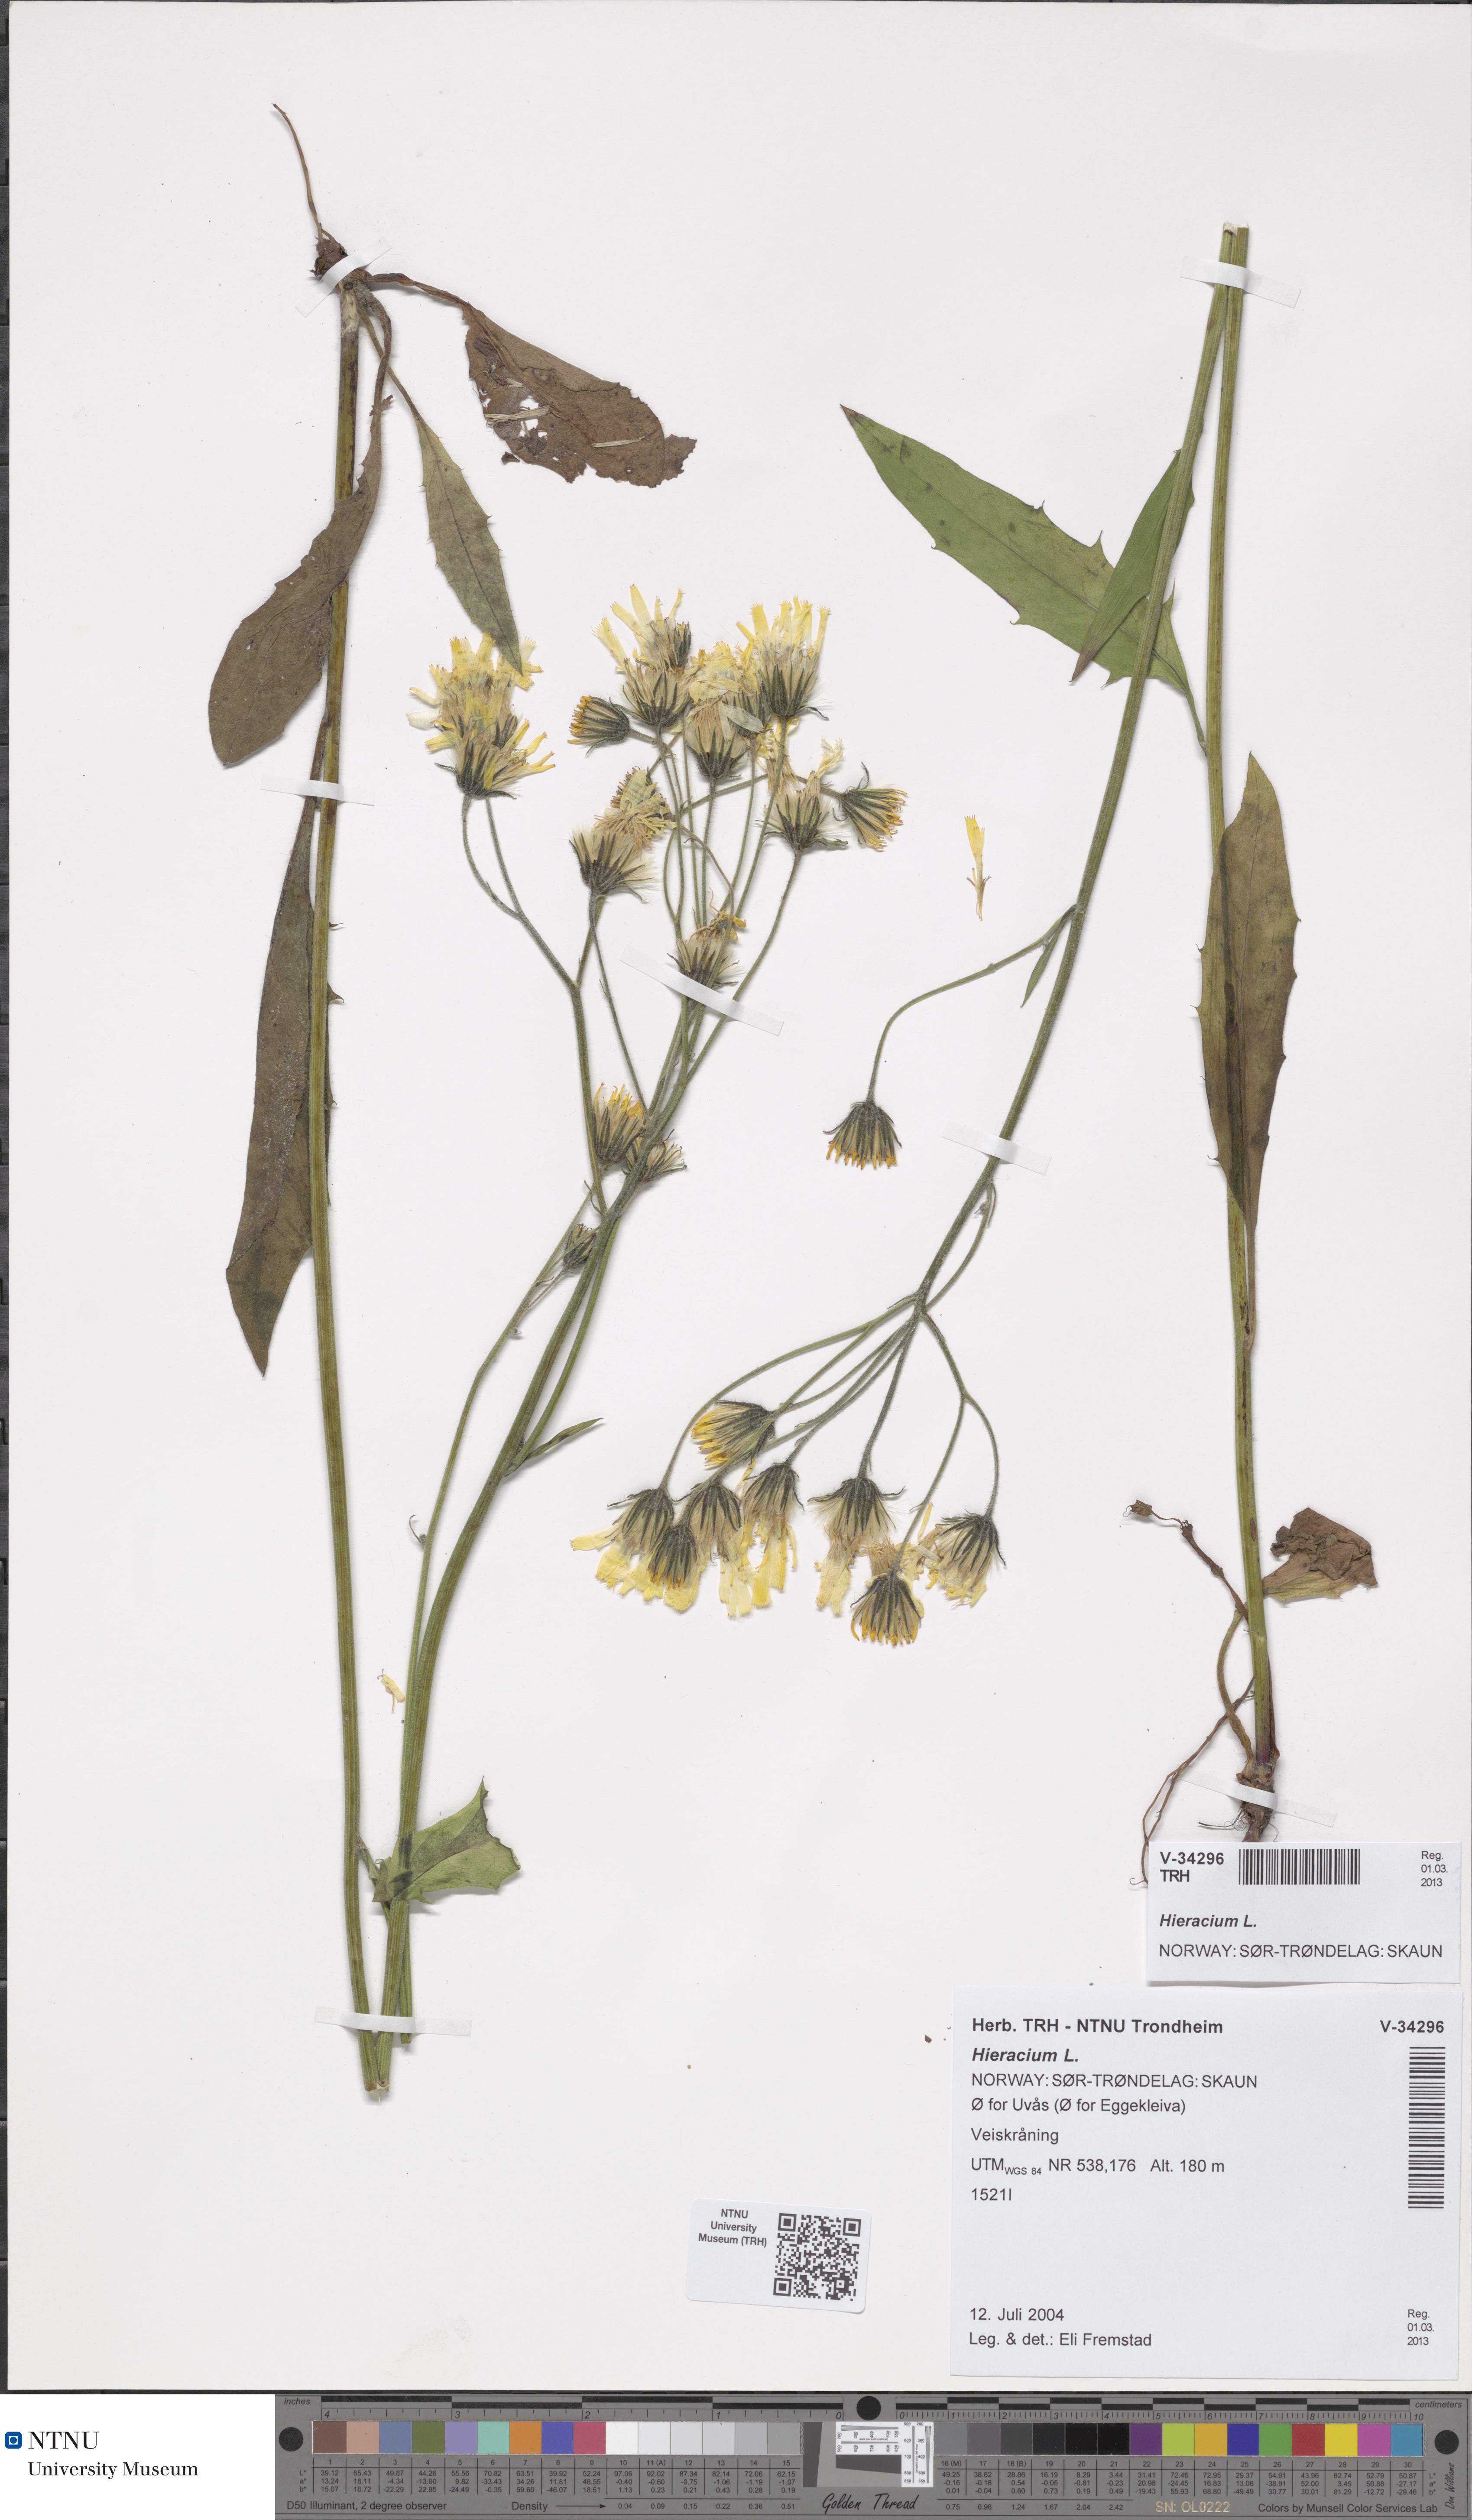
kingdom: Plantae
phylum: Tracheophyta
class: Magnoliopsida
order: Asterales
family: Asteraceae
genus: Hieracium
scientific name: Hieracium
